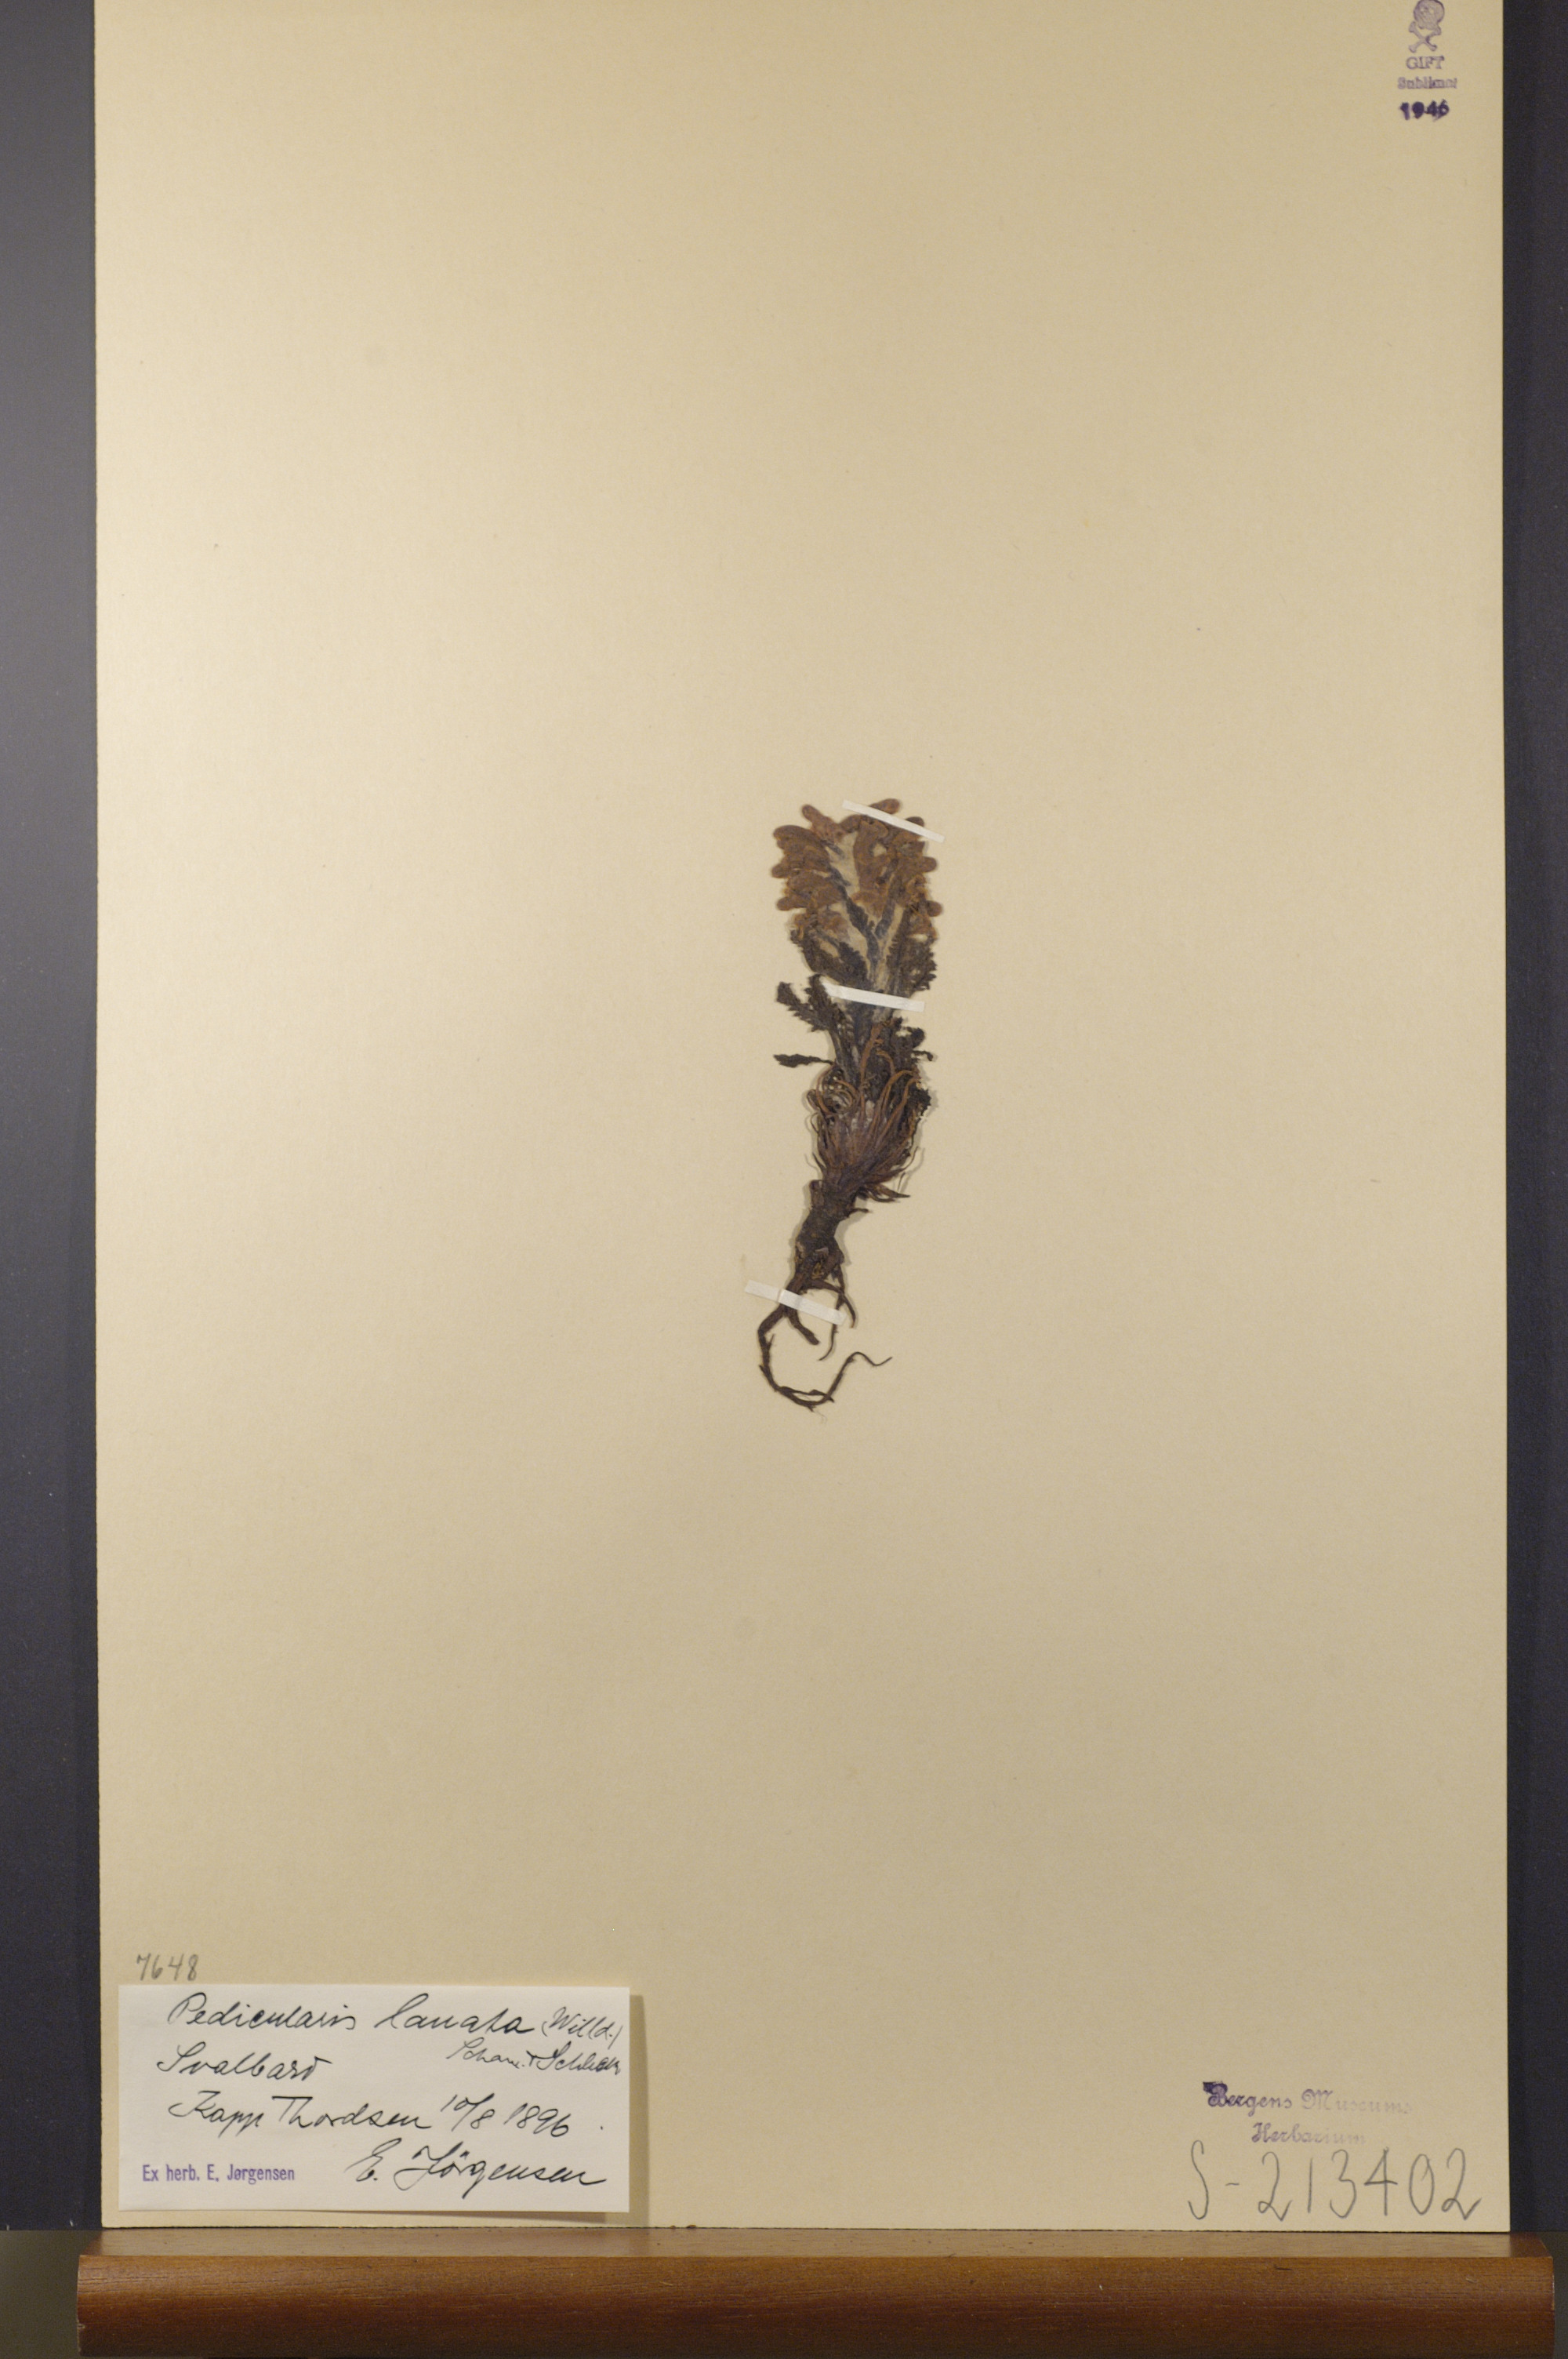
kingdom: Plantae
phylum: Tracheophyta
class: Magnoliopsida
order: Lamiales
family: Orobanchaceae
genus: Pedicularis
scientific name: Pedicularis lanata
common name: Woolly lousewort
